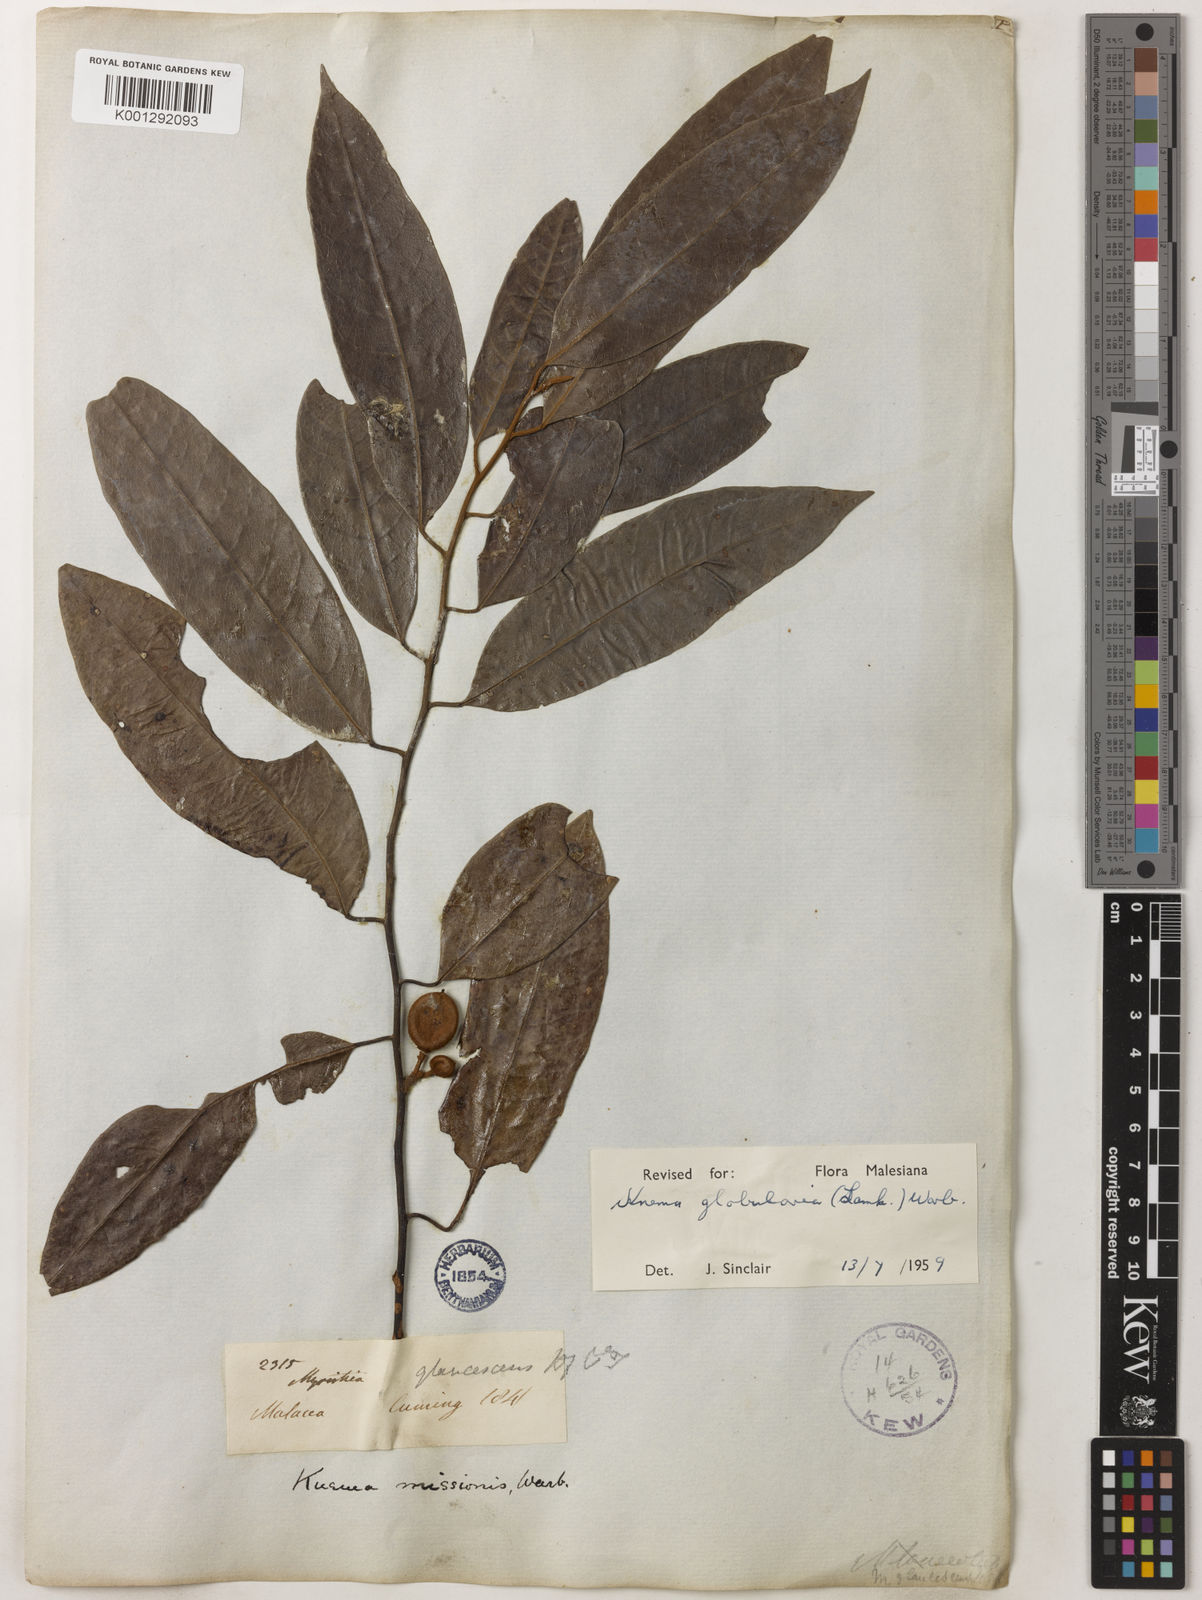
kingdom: Plantae
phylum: Tracheophyta
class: Magnoliopsida
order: Magnoliales
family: Myristicaceae
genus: Knema
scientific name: Knema globularia
